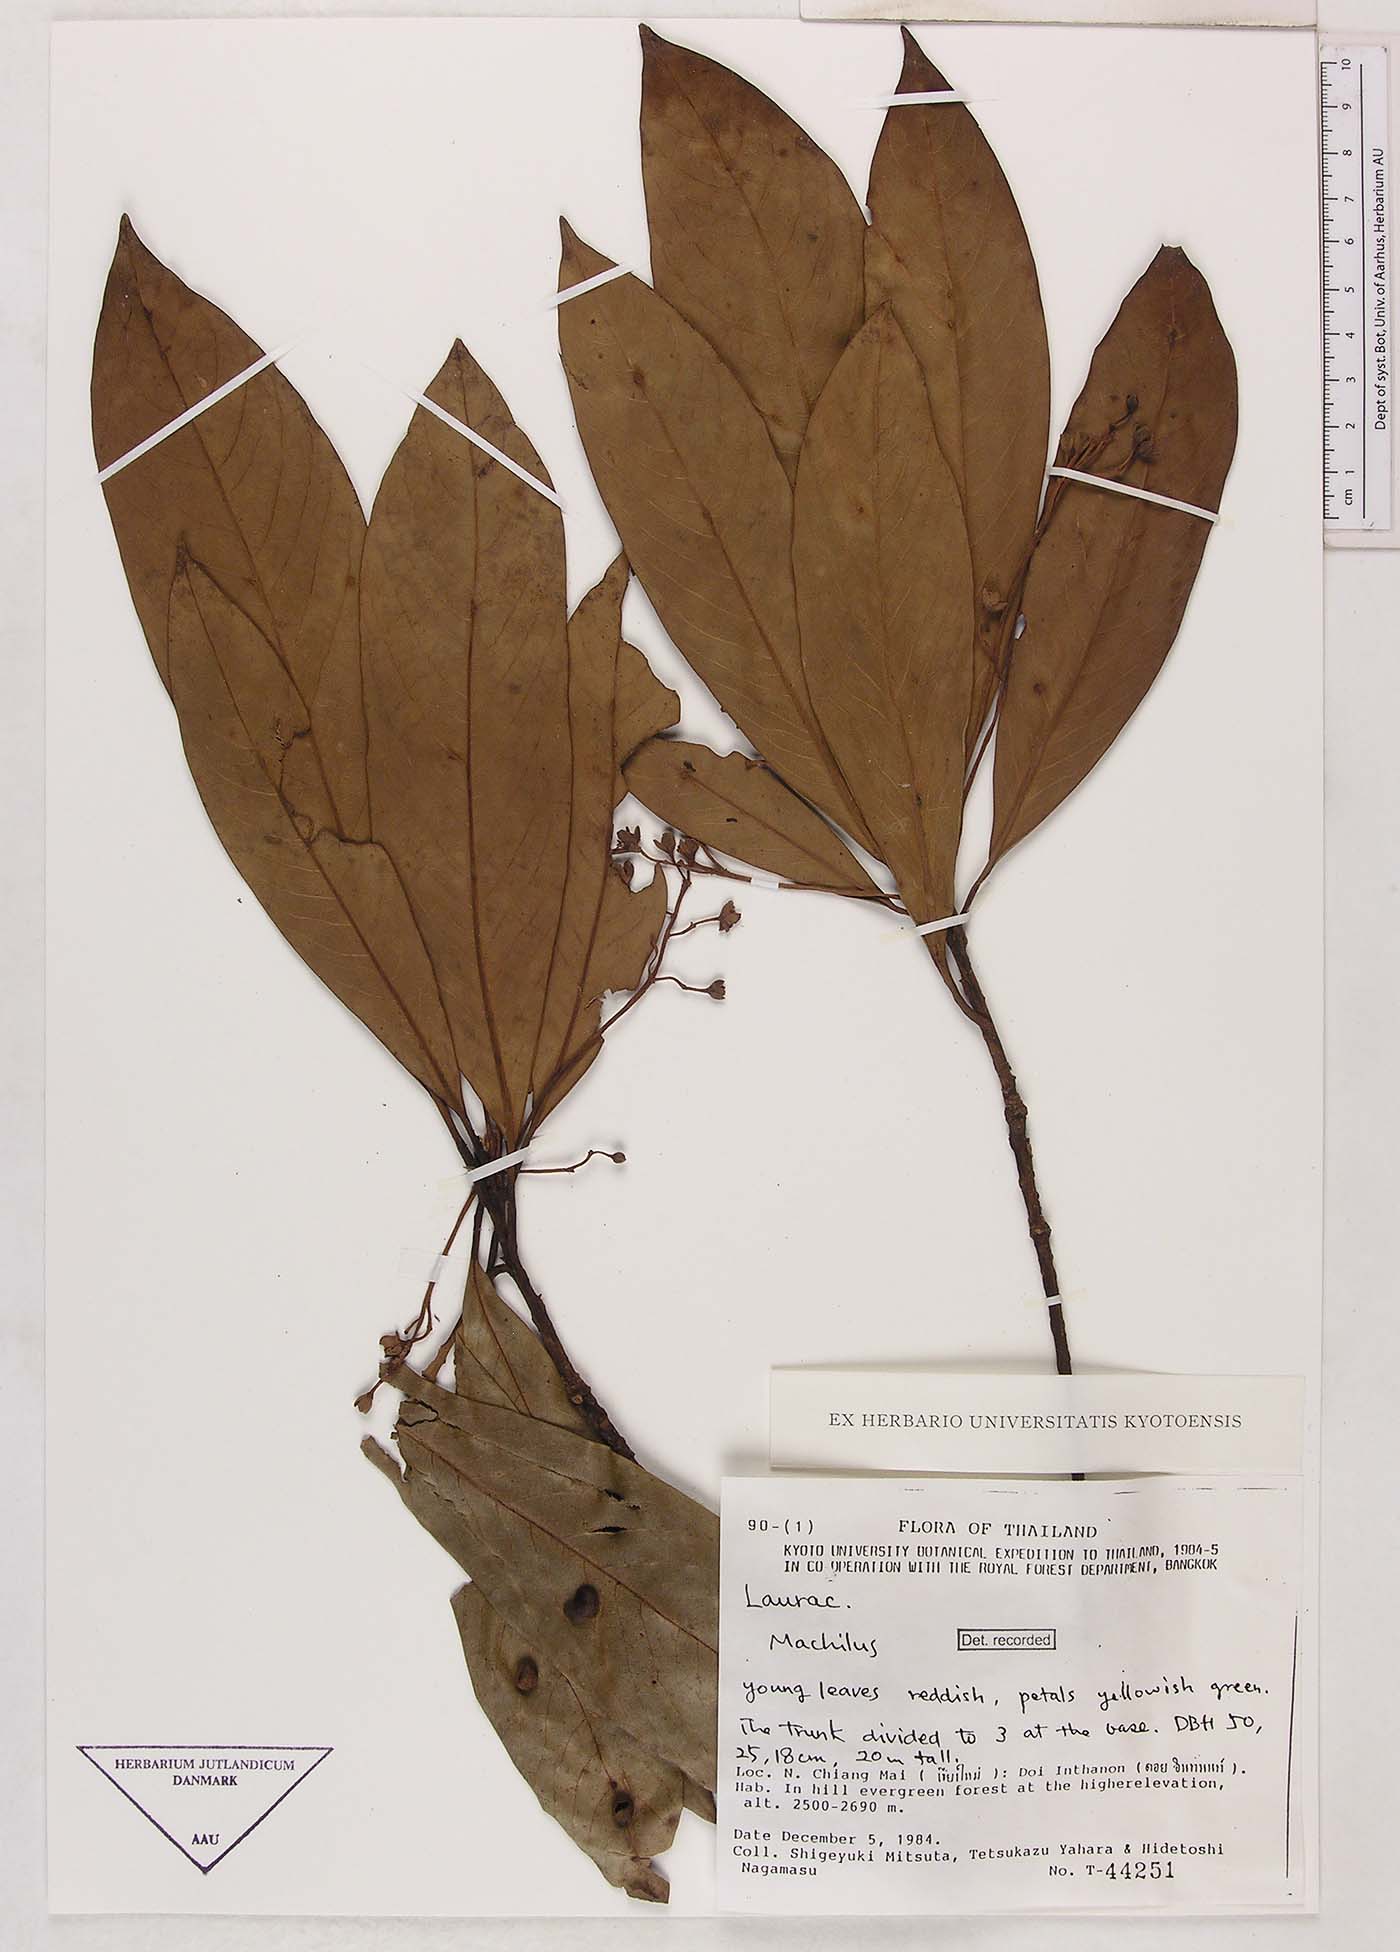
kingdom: Plantae
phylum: Tracheophyta
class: Magnoliopsida
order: Laurales
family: Lauraceae
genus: Machilus
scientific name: Machilus
